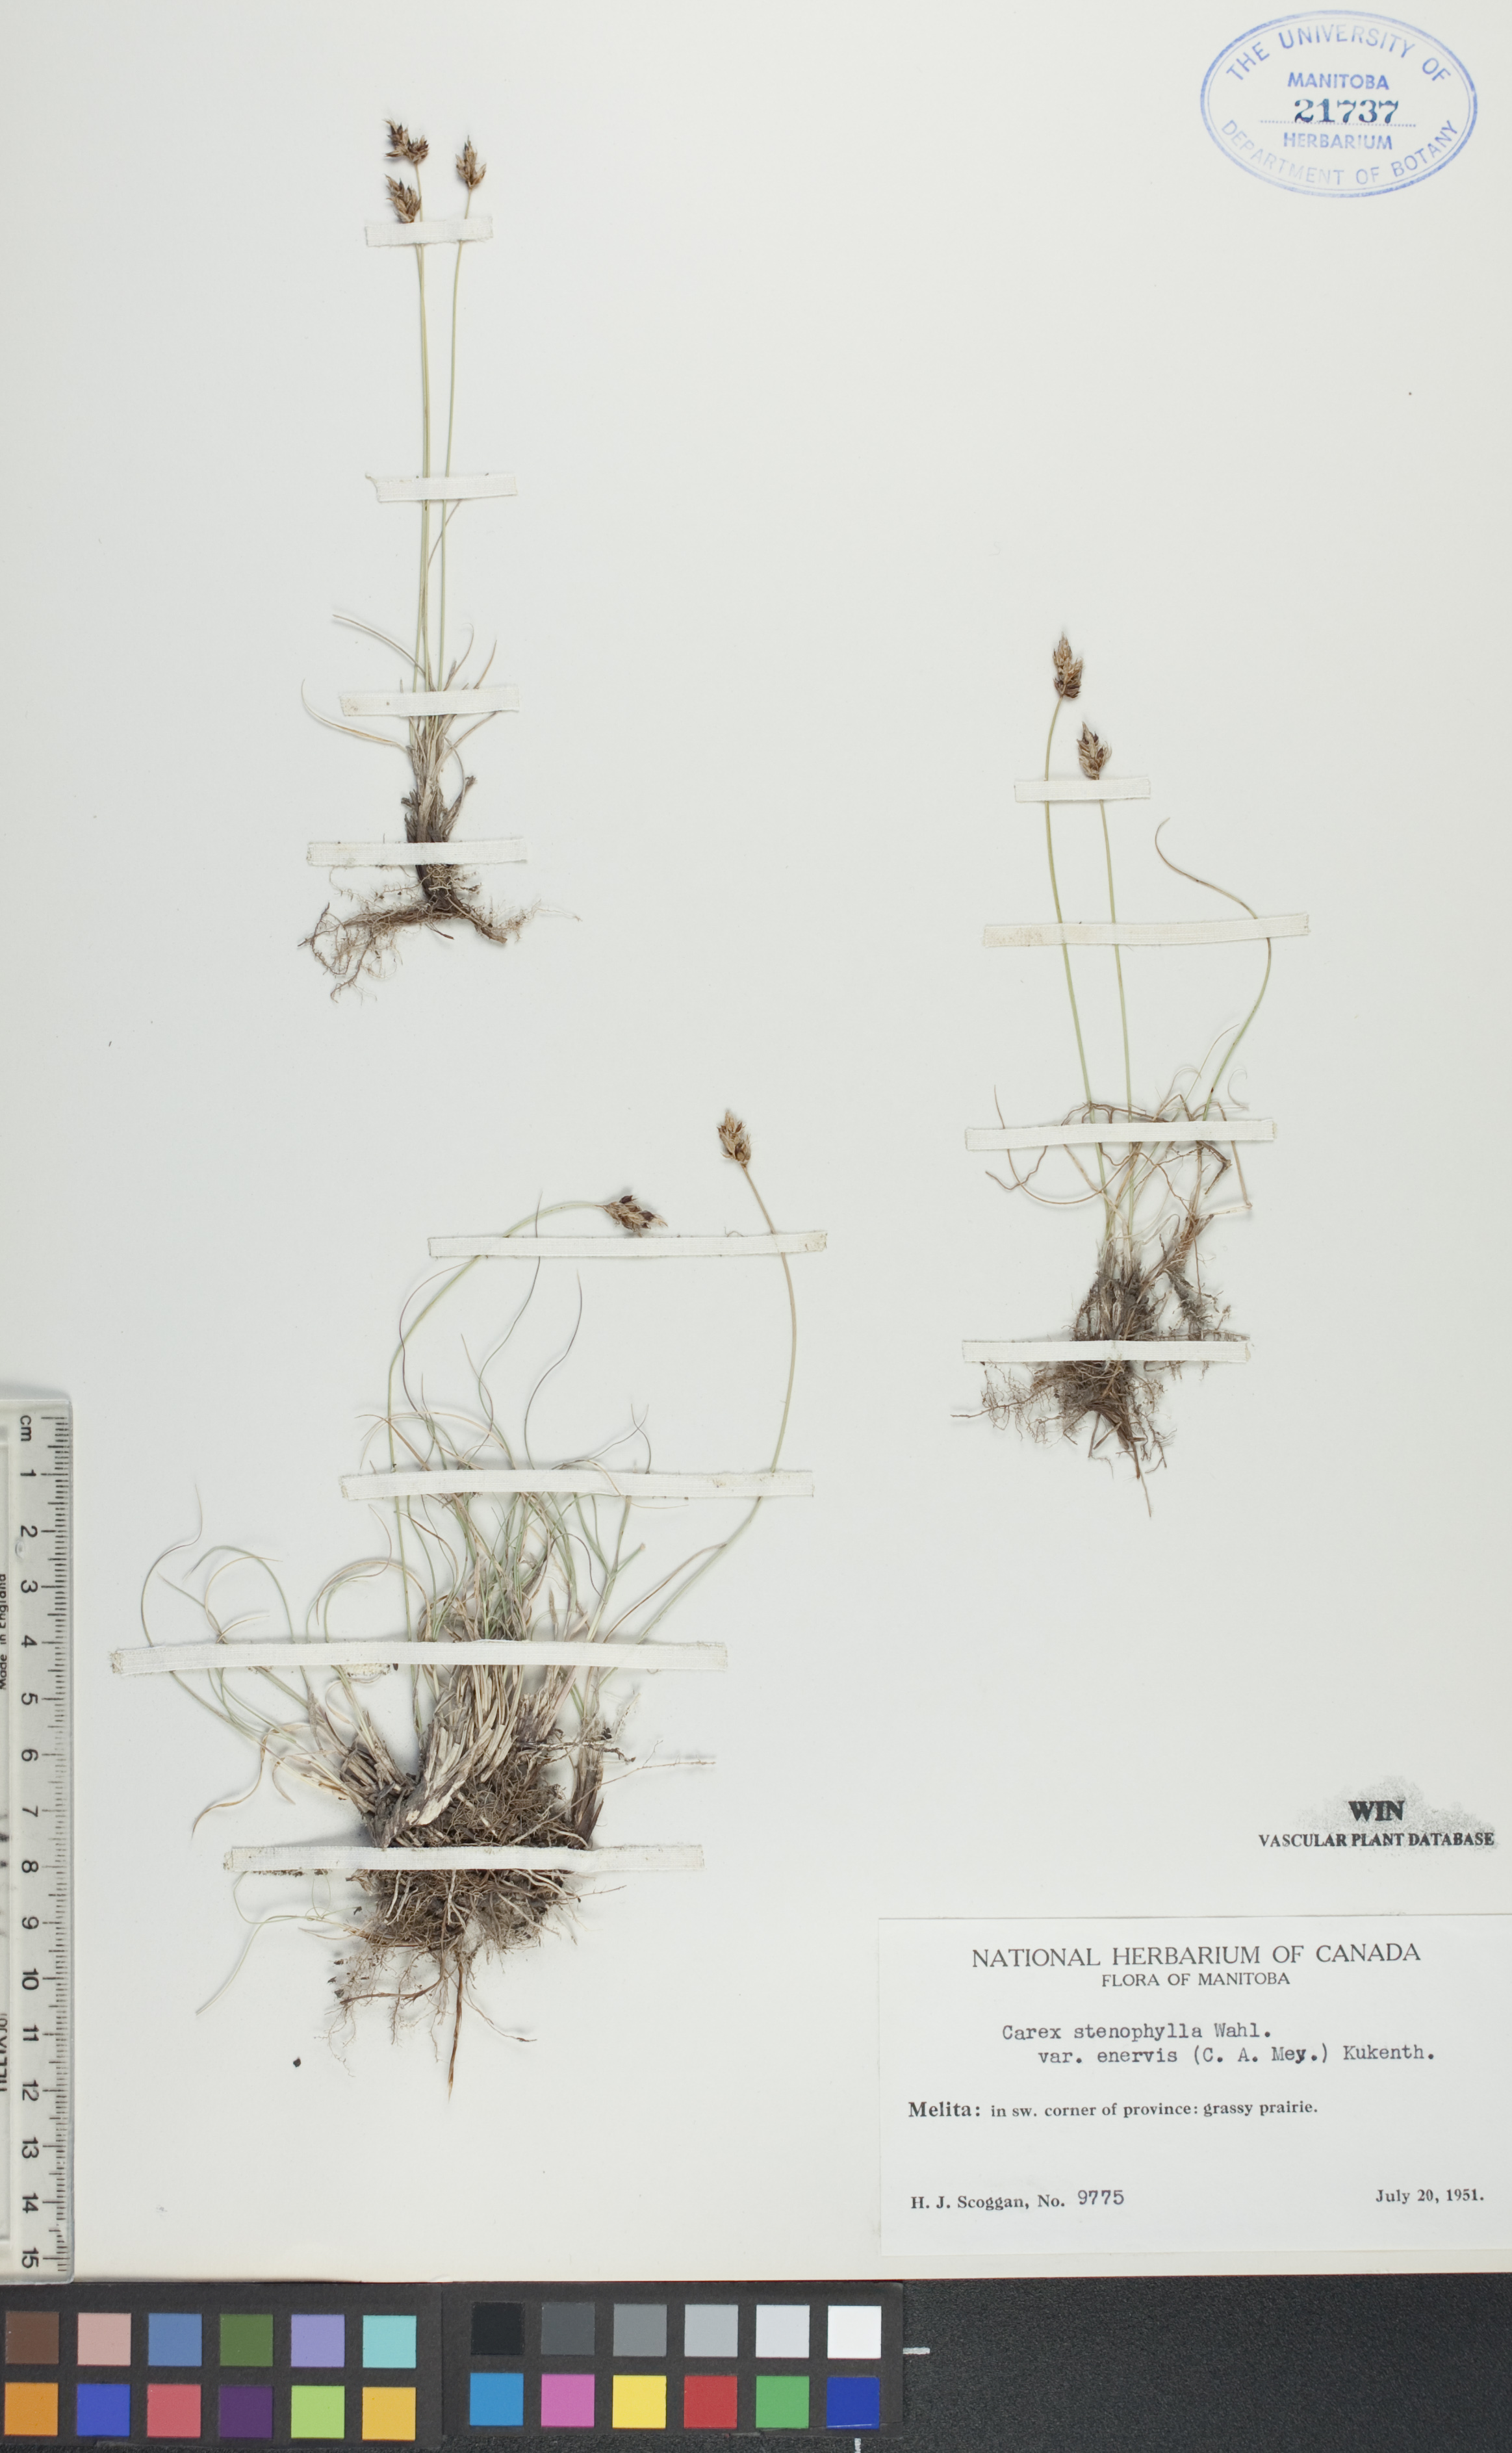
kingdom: Plantae
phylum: Tracheophyta
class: Liliopsida
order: Poales
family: Cyperaceae
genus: Carex
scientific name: Carex enervis
